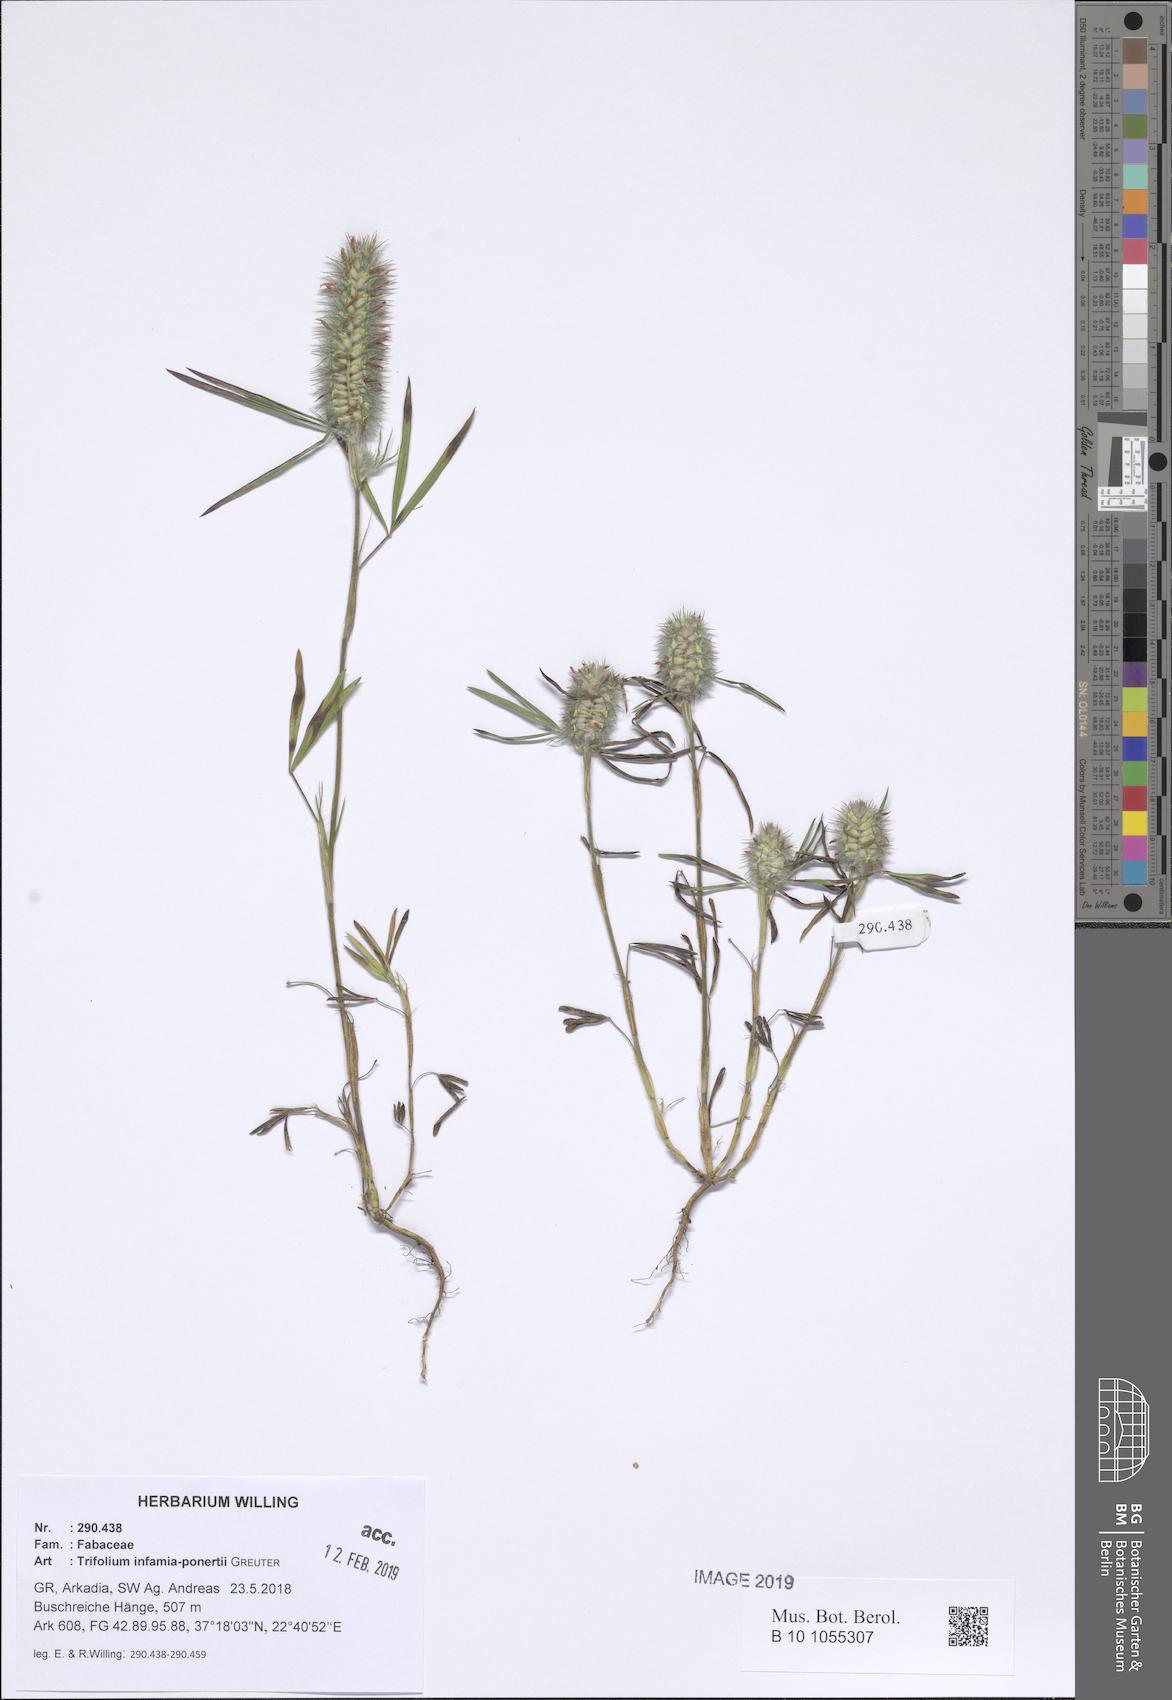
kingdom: Plantae
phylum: Tracheophyta
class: Magnoliopsida
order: Fabales
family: Fabaceae
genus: Trifolium
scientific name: Trifolium infamia-ponertii
